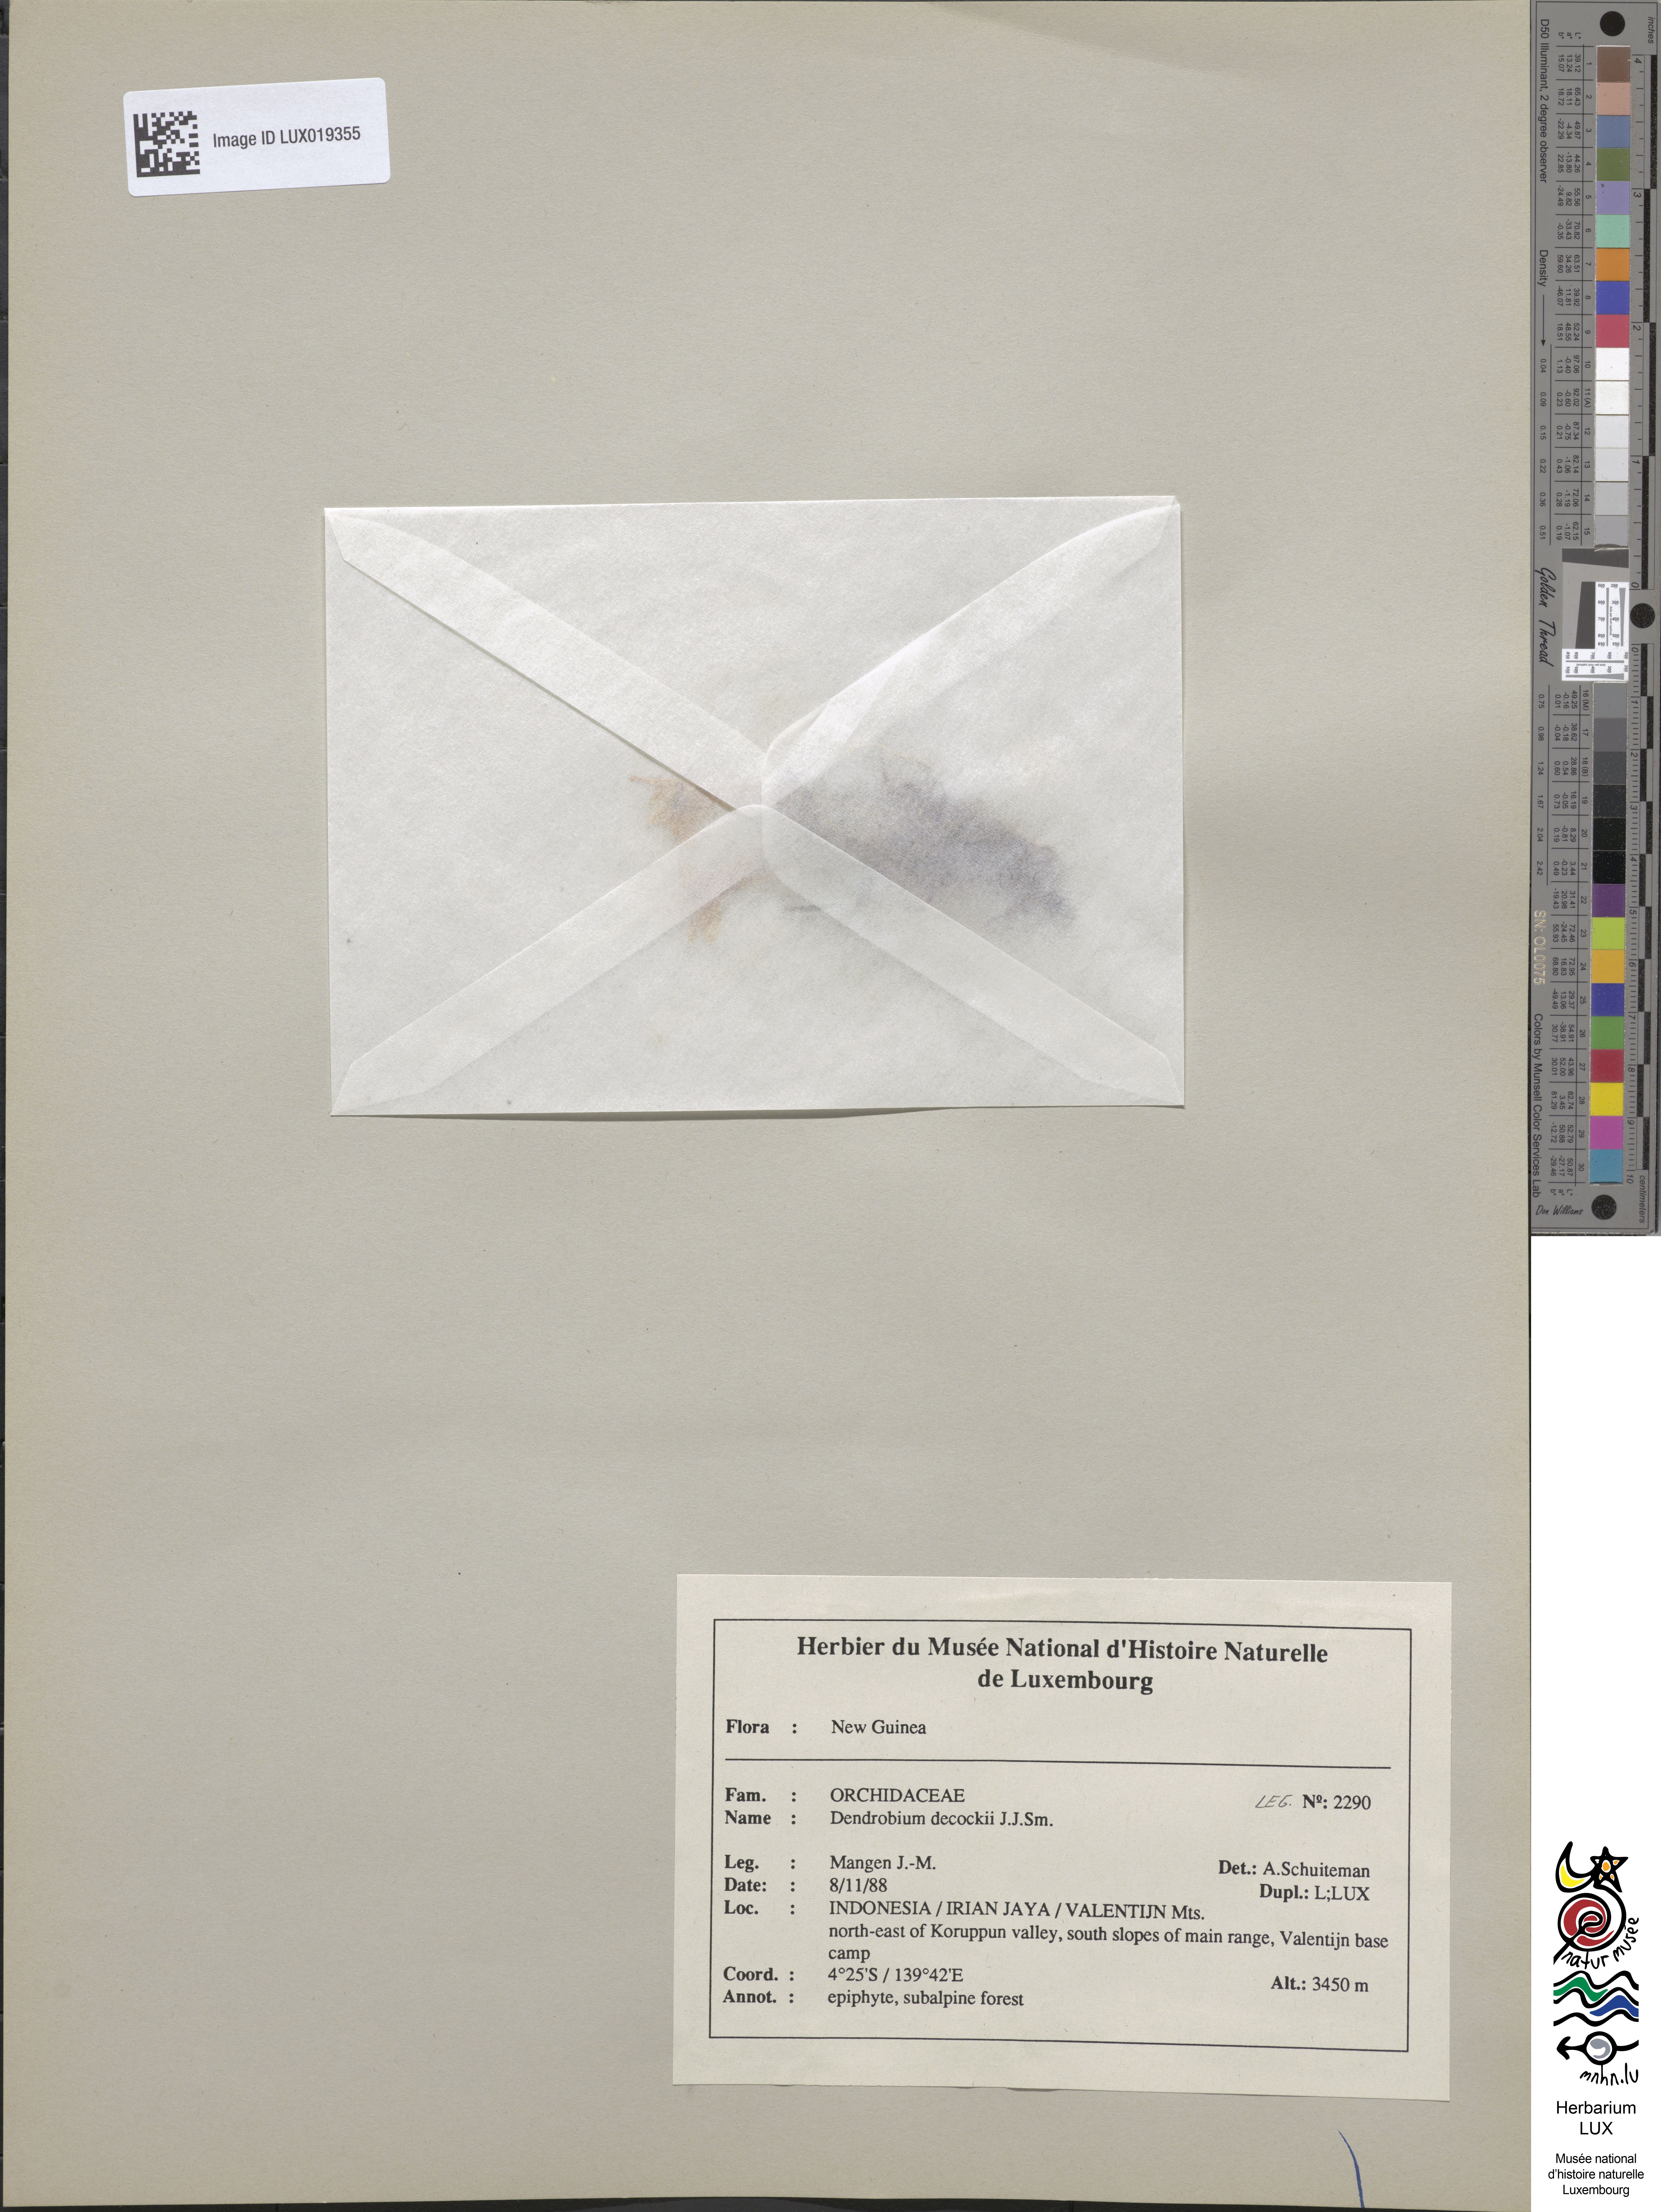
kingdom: Plantae
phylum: Tracheophyta
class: Liliopsida
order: Asparagales
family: Orchidaceae
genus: Dendrobium
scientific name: Dendrobium dekockii
